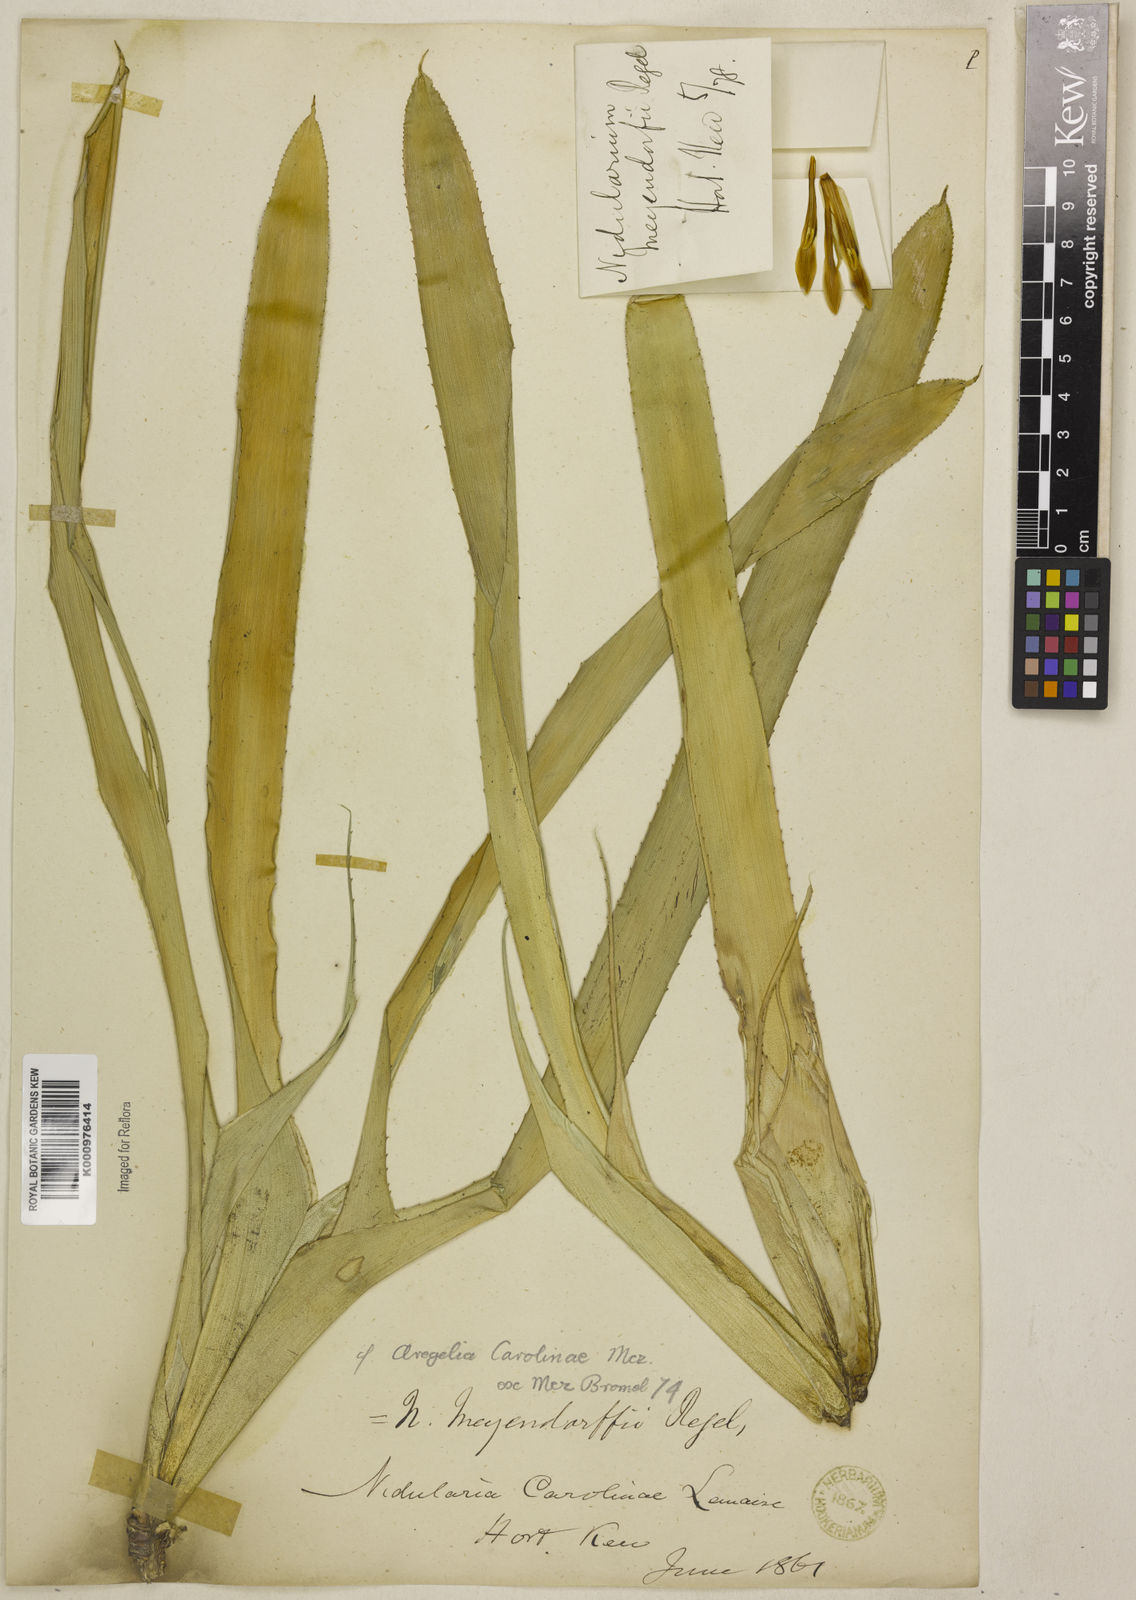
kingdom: Plantae
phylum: Tracheophyta
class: Liliopsida
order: Poales
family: Bromeliaceae
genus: Neoregelia
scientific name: Neoregelia carolinae
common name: Blushing bromeliad
